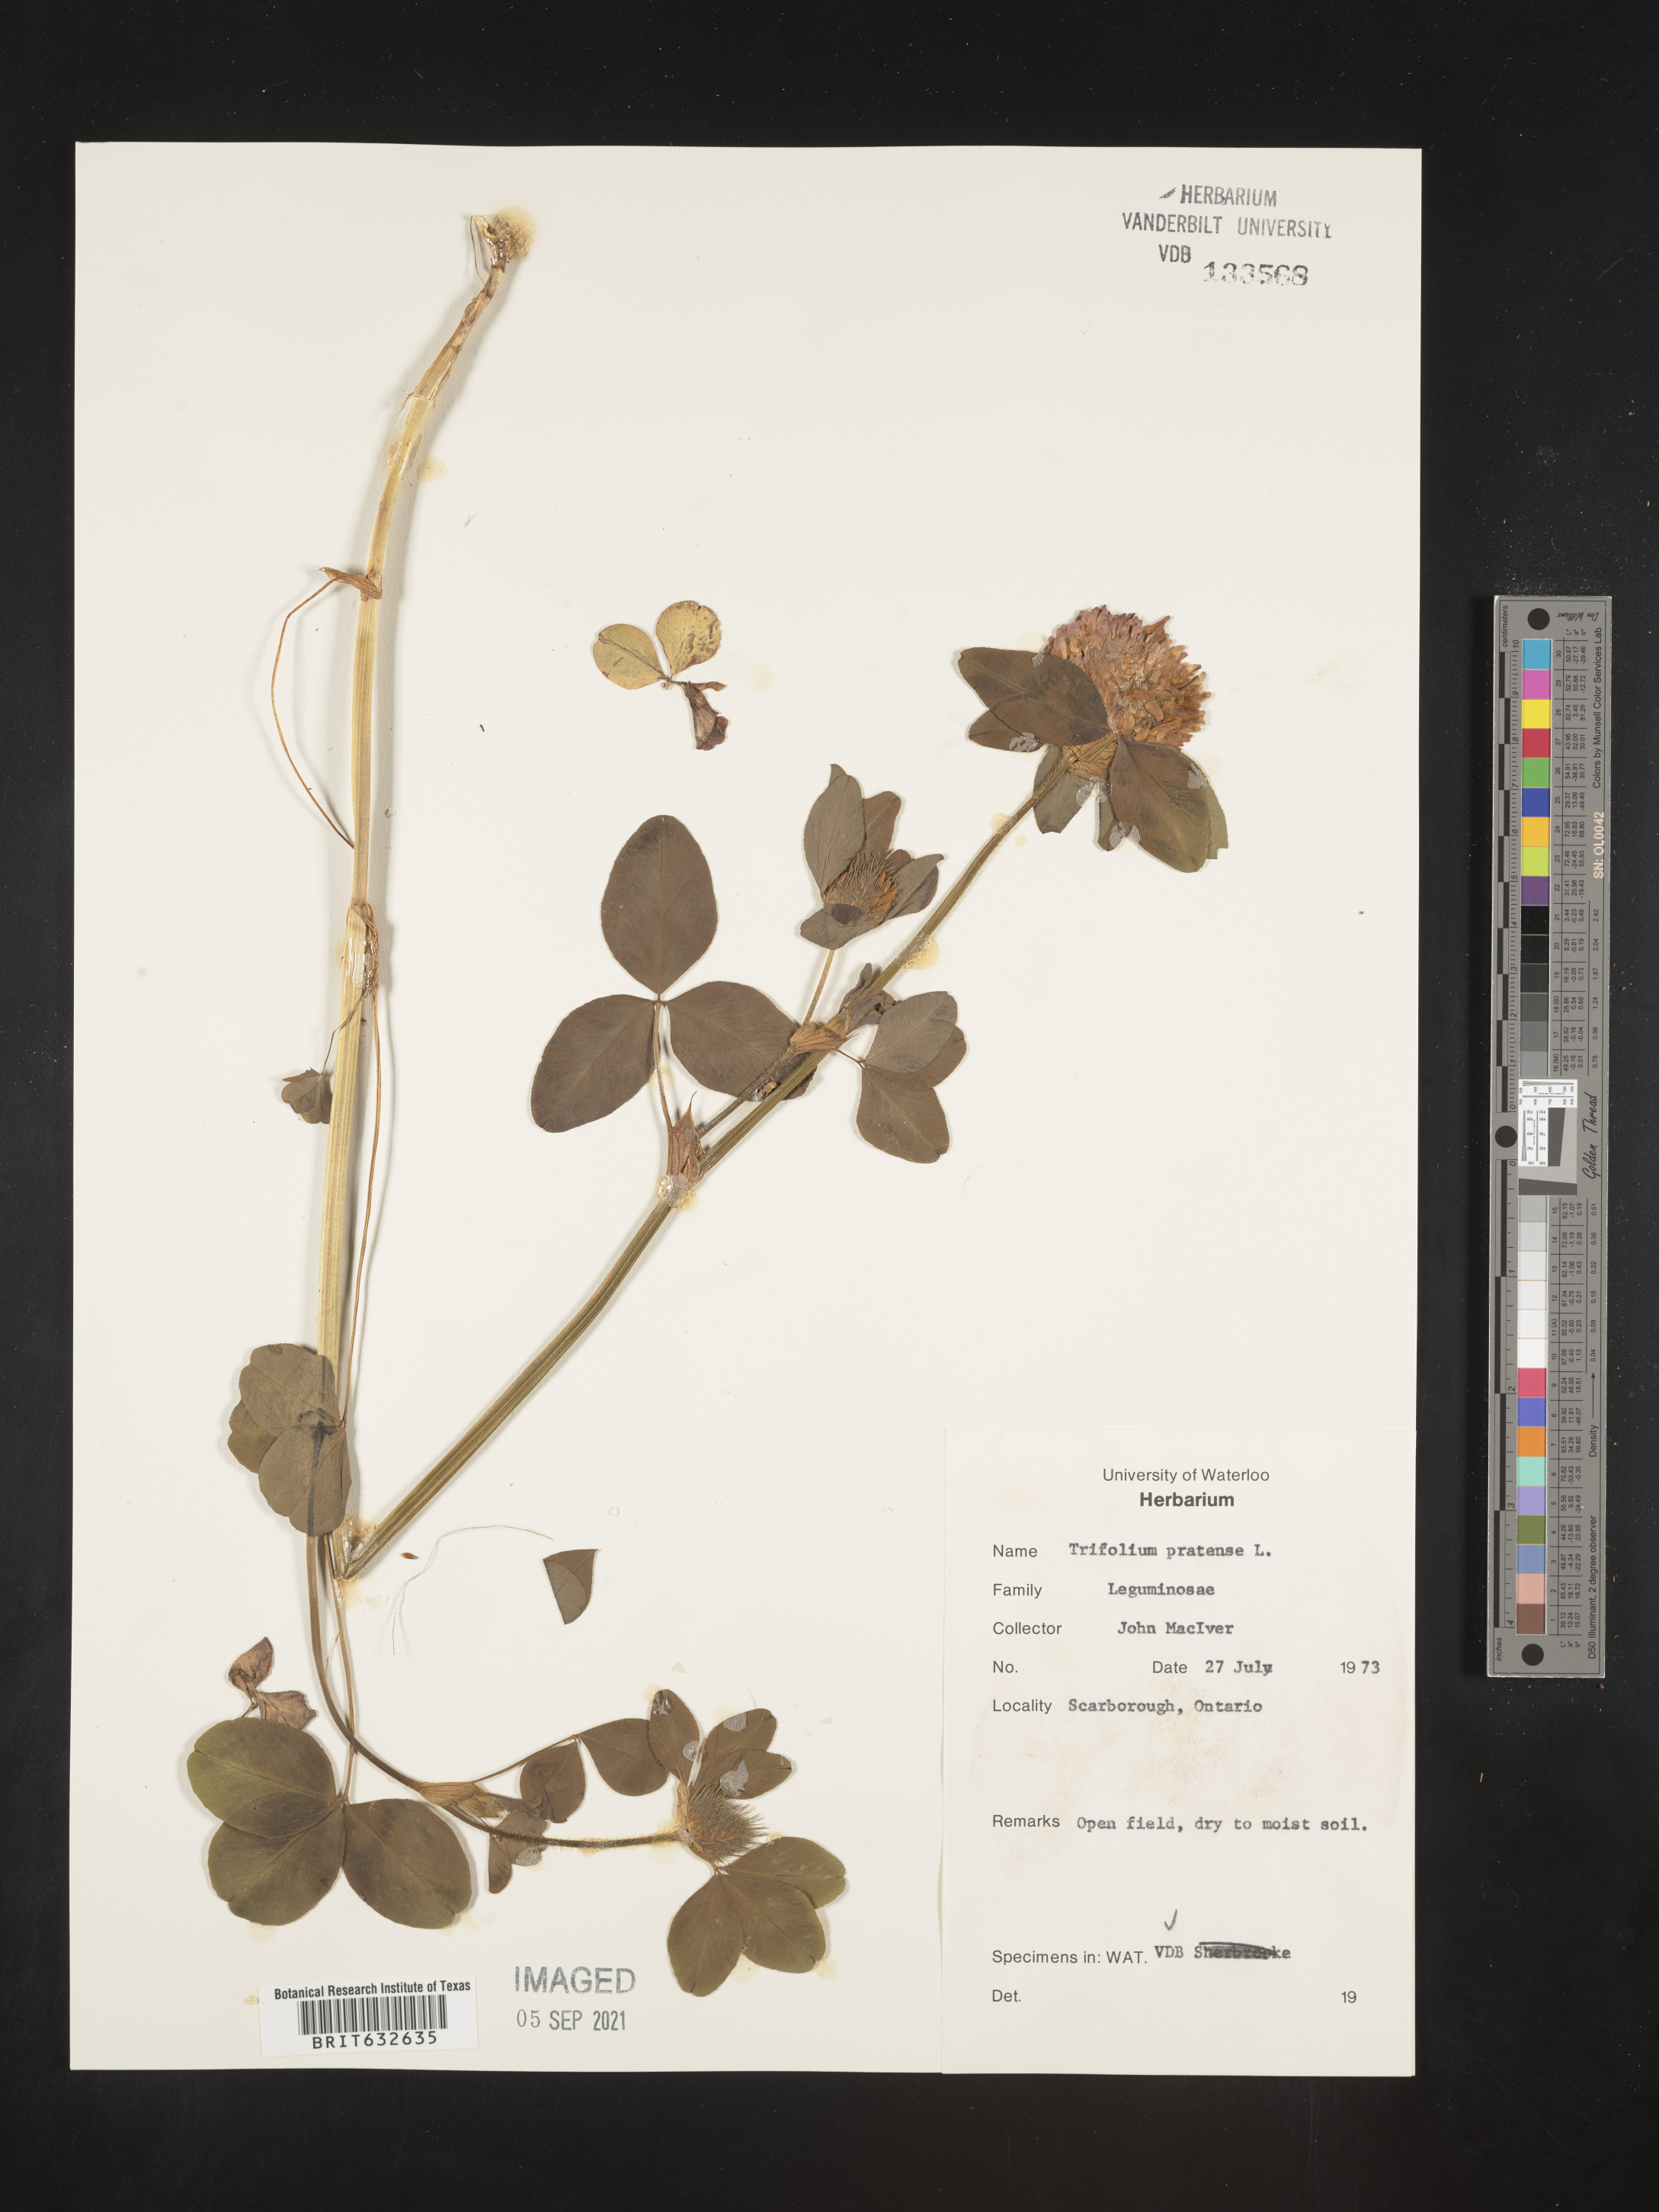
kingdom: Plantae
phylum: Tracheophyta
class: Magnoliopsida
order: Fabales
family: Fabaceae
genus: Trifolium
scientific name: Trifolium
